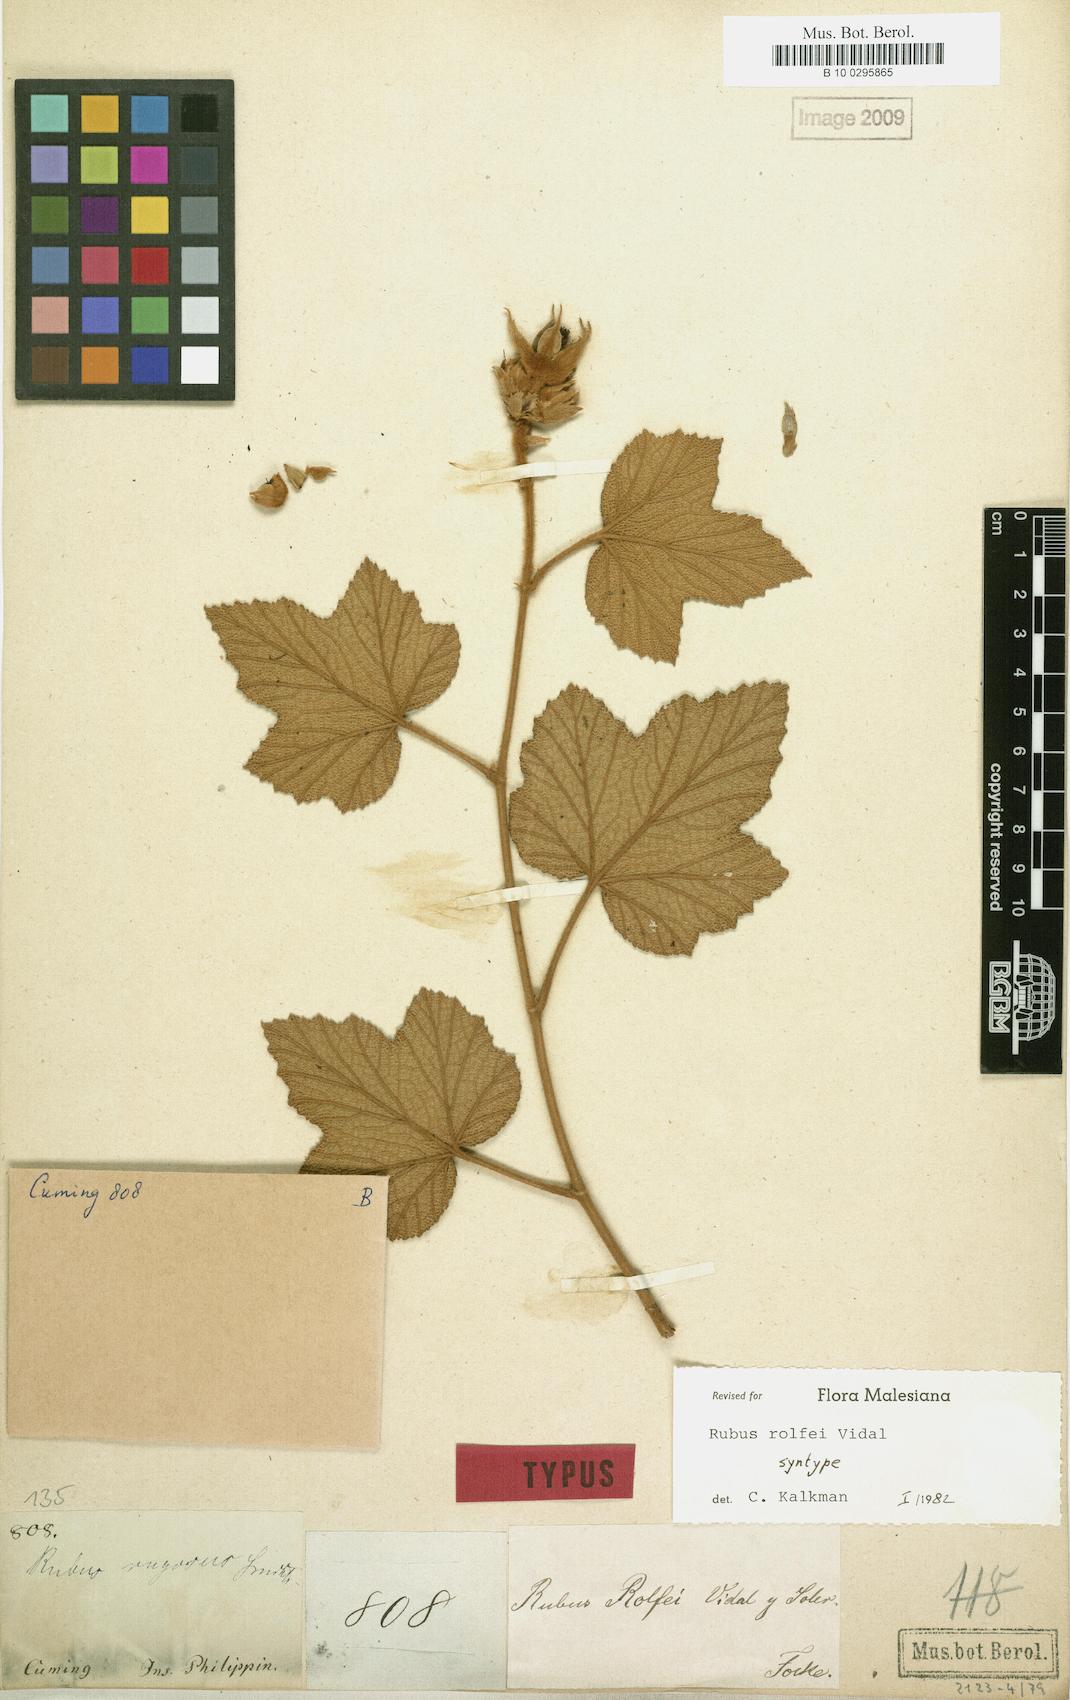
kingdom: Plantae
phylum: Tracheophyta
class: Magnoliopsida
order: Rosales
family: Rosaceae
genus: Rubus
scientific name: Rubus rolfei
